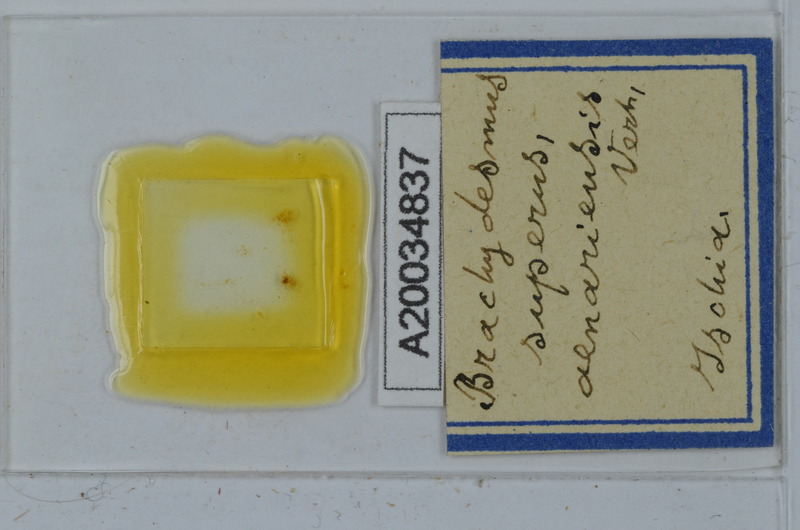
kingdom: Animalia
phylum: Arthropoda
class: Diplopoda
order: Polydesmida
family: Polydesmidae
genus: Brachydesmus
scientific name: Brachydesmus superus
